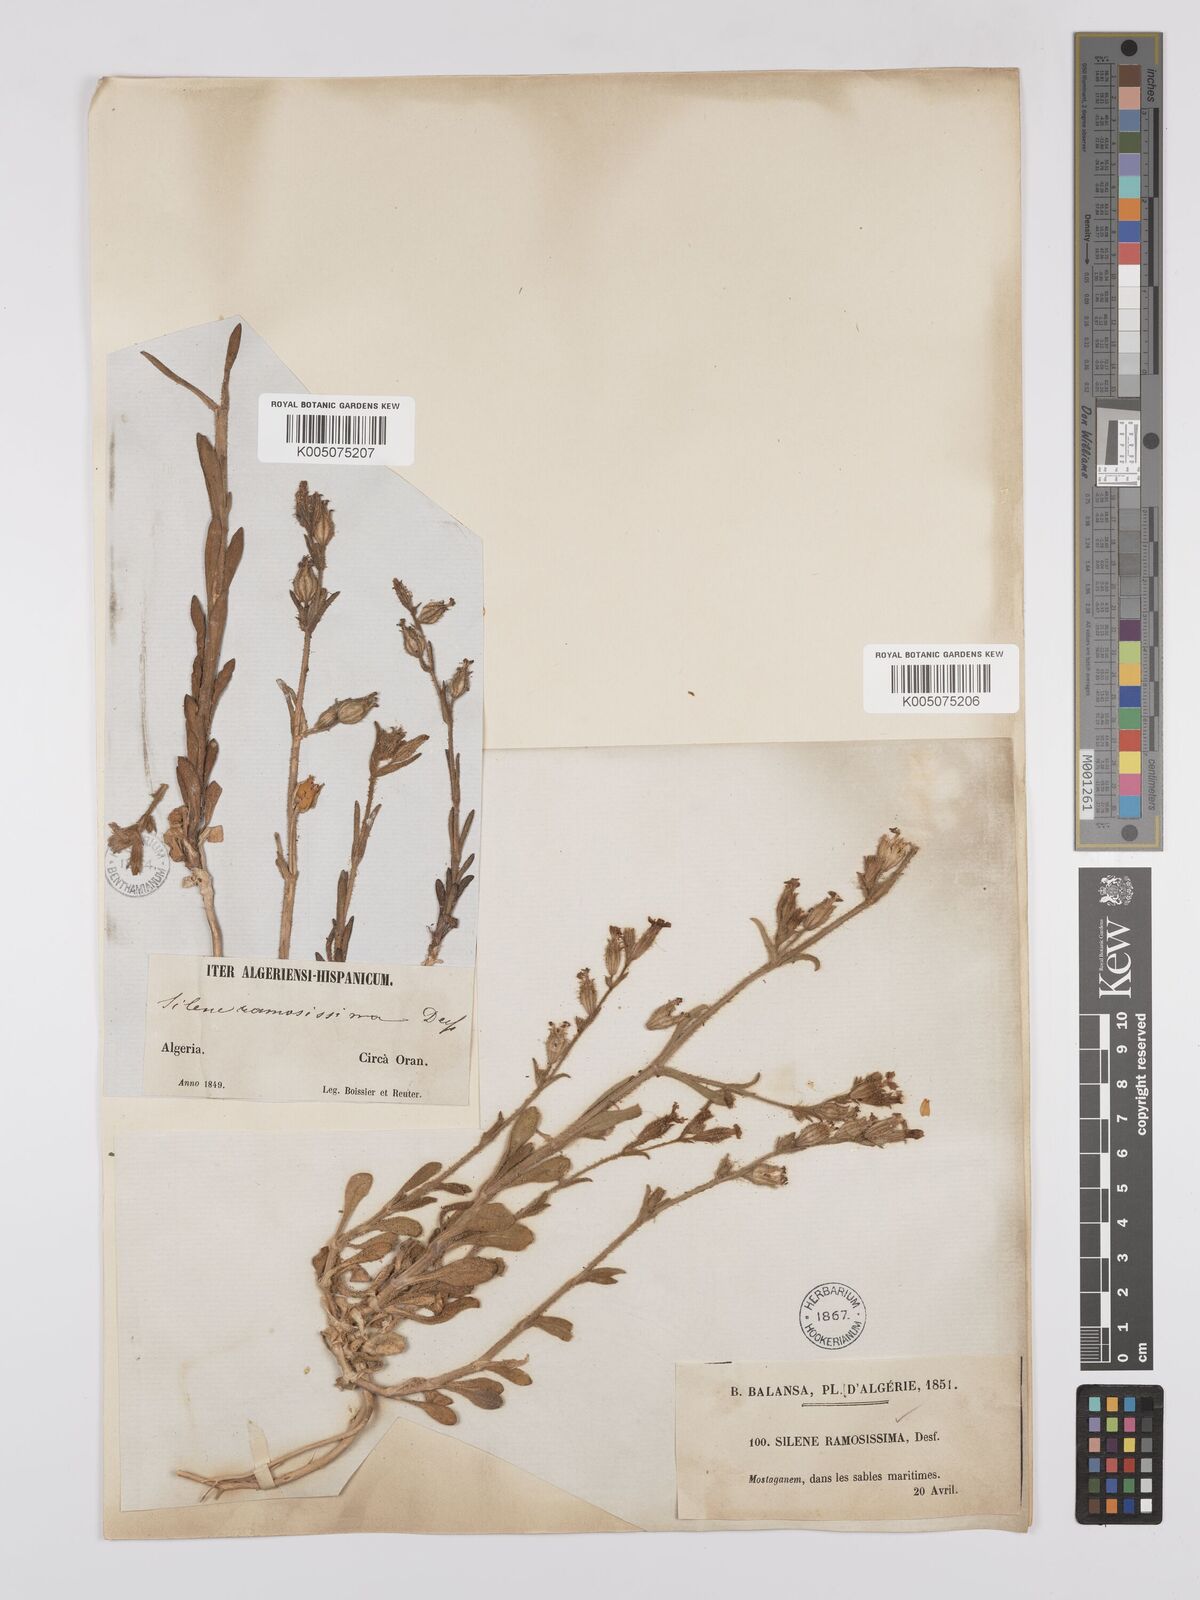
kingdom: Plantae
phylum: Tracheophyta
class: Magnoliopsida
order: Caryophyllales
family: Caryophyllaceae
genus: Silene
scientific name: Silene ramosissima
